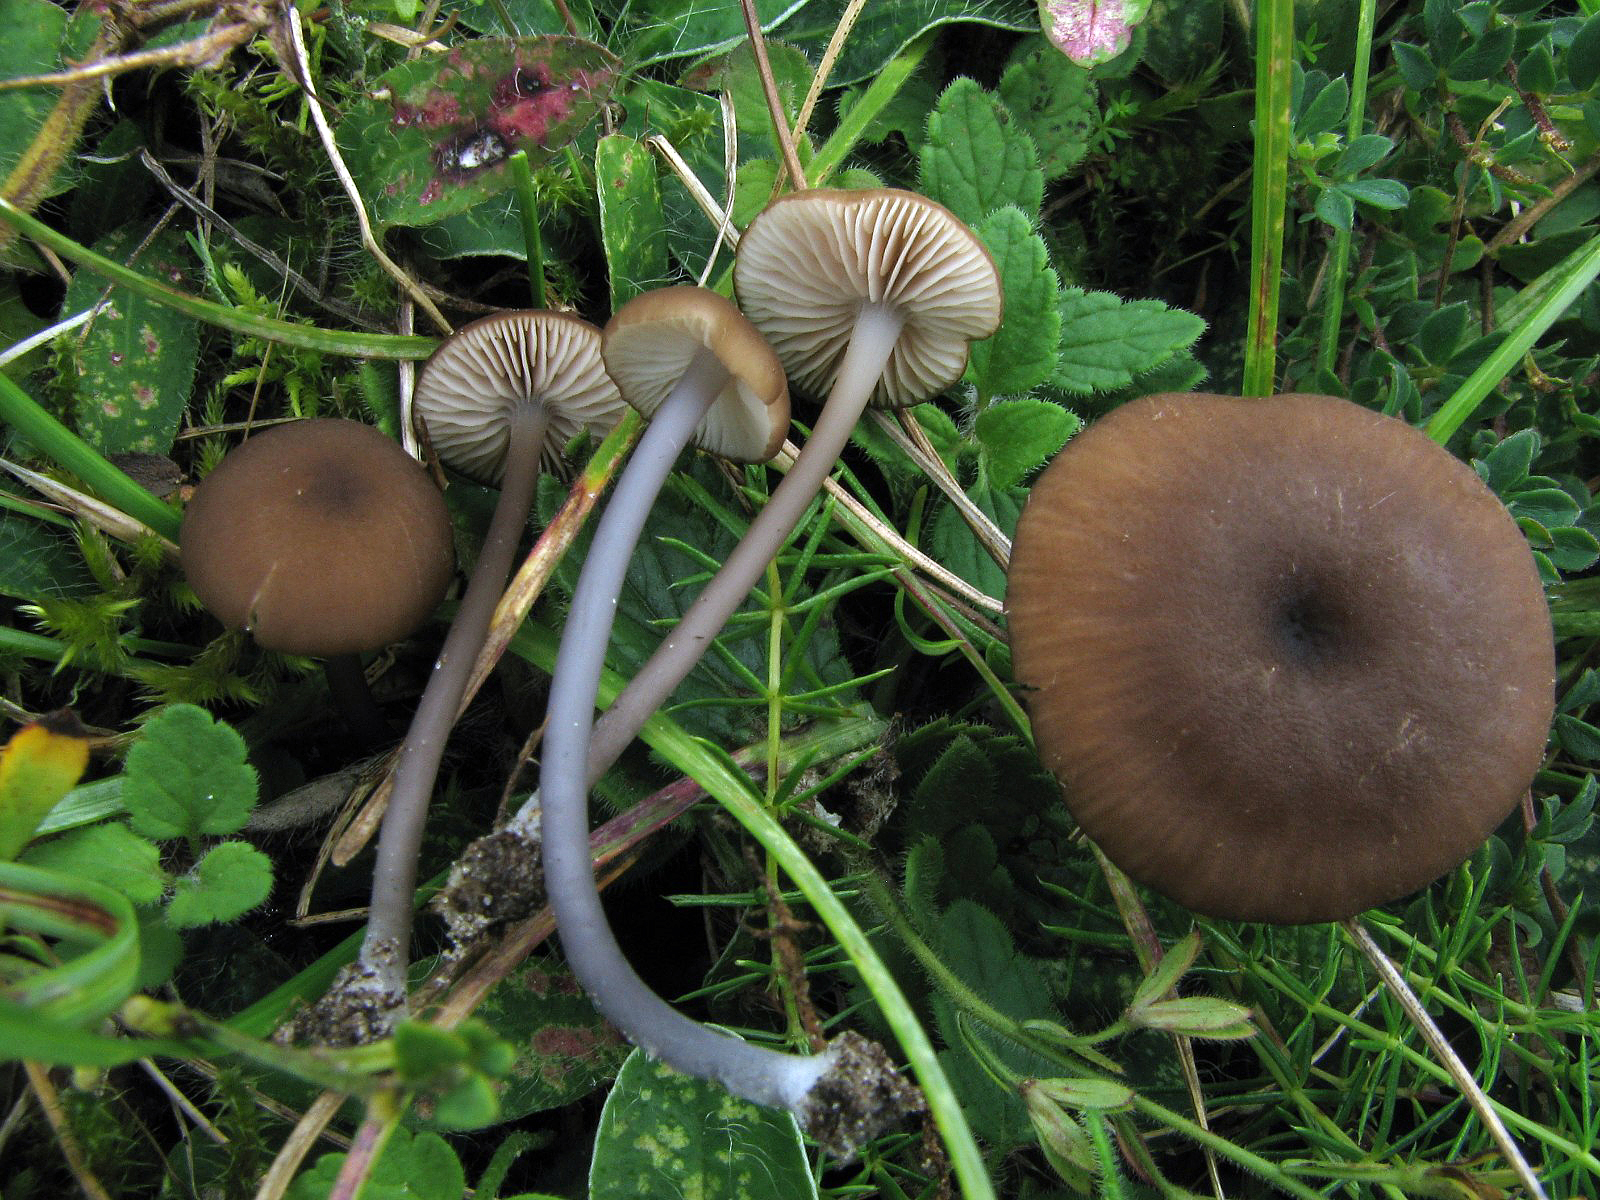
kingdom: Fungi
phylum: Basidiomycota
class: Agaricomycetes
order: Agaricales
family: Entolomataceae
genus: Entoloma
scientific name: Entoloma minutigranulosum
